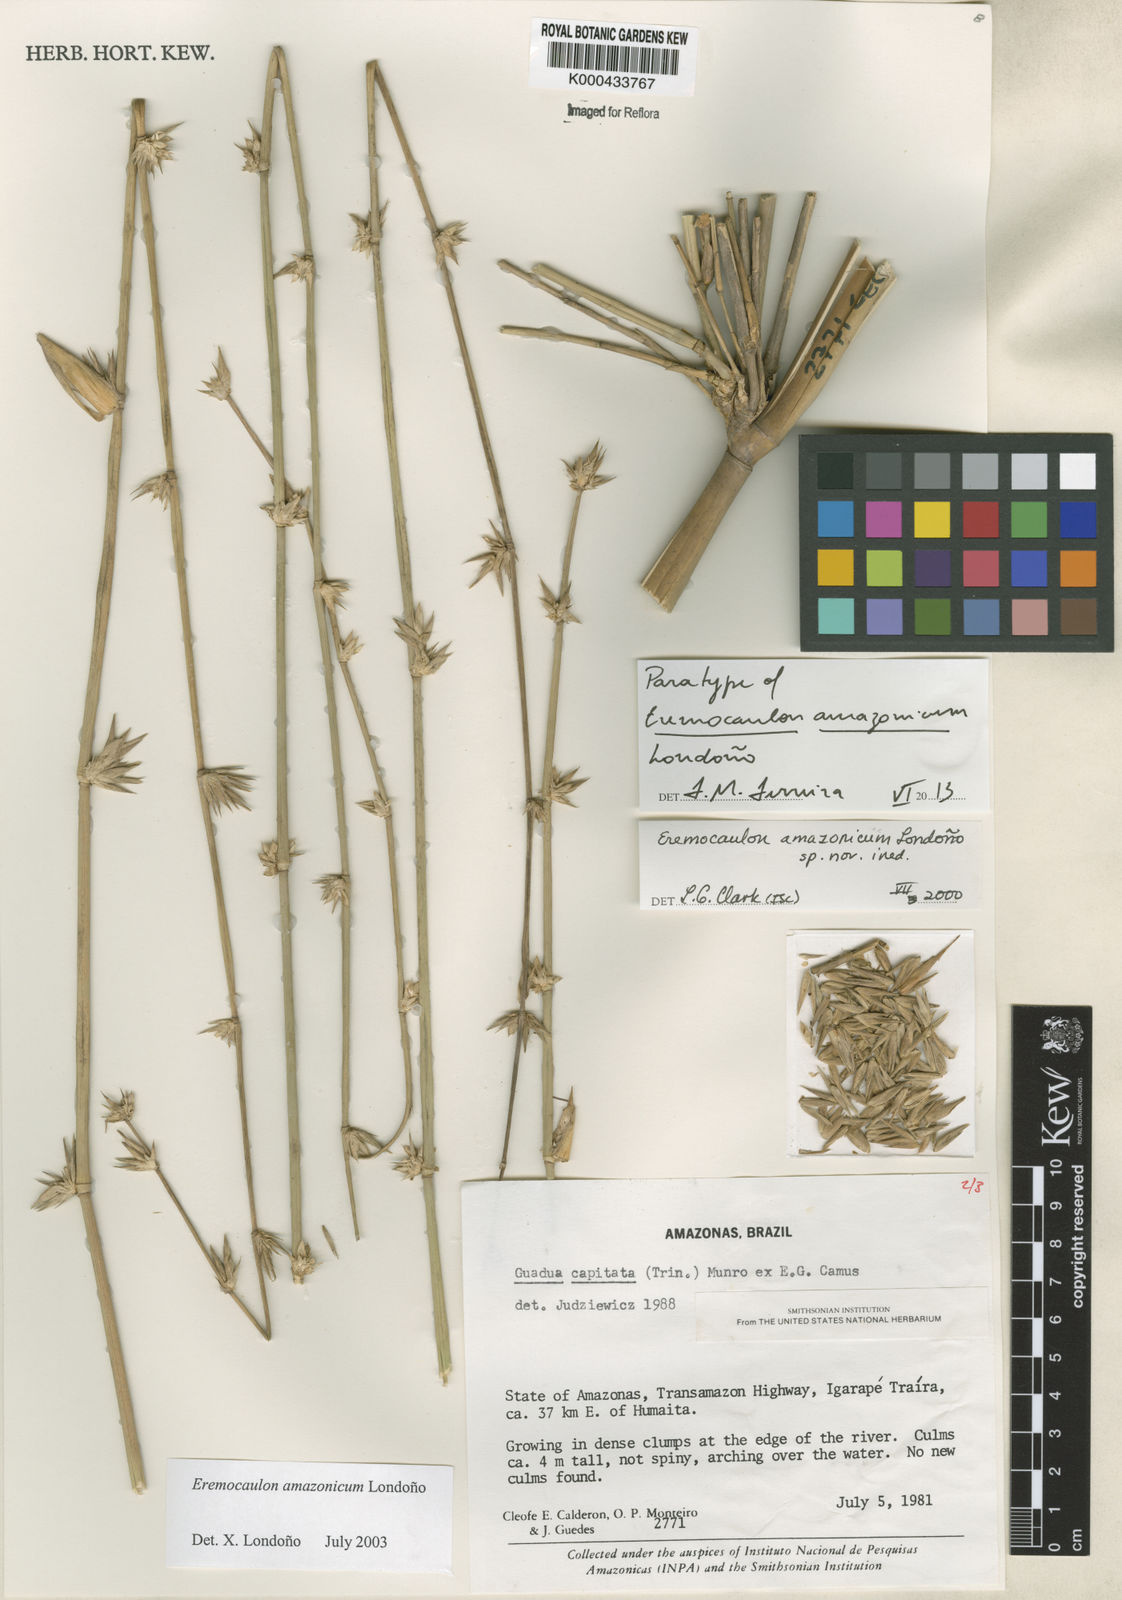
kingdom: Plantae
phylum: Tracheophyta
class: Liliopsida
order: Poales
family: Poaceae
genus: Eremocaulon
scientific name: Eremocaulon
